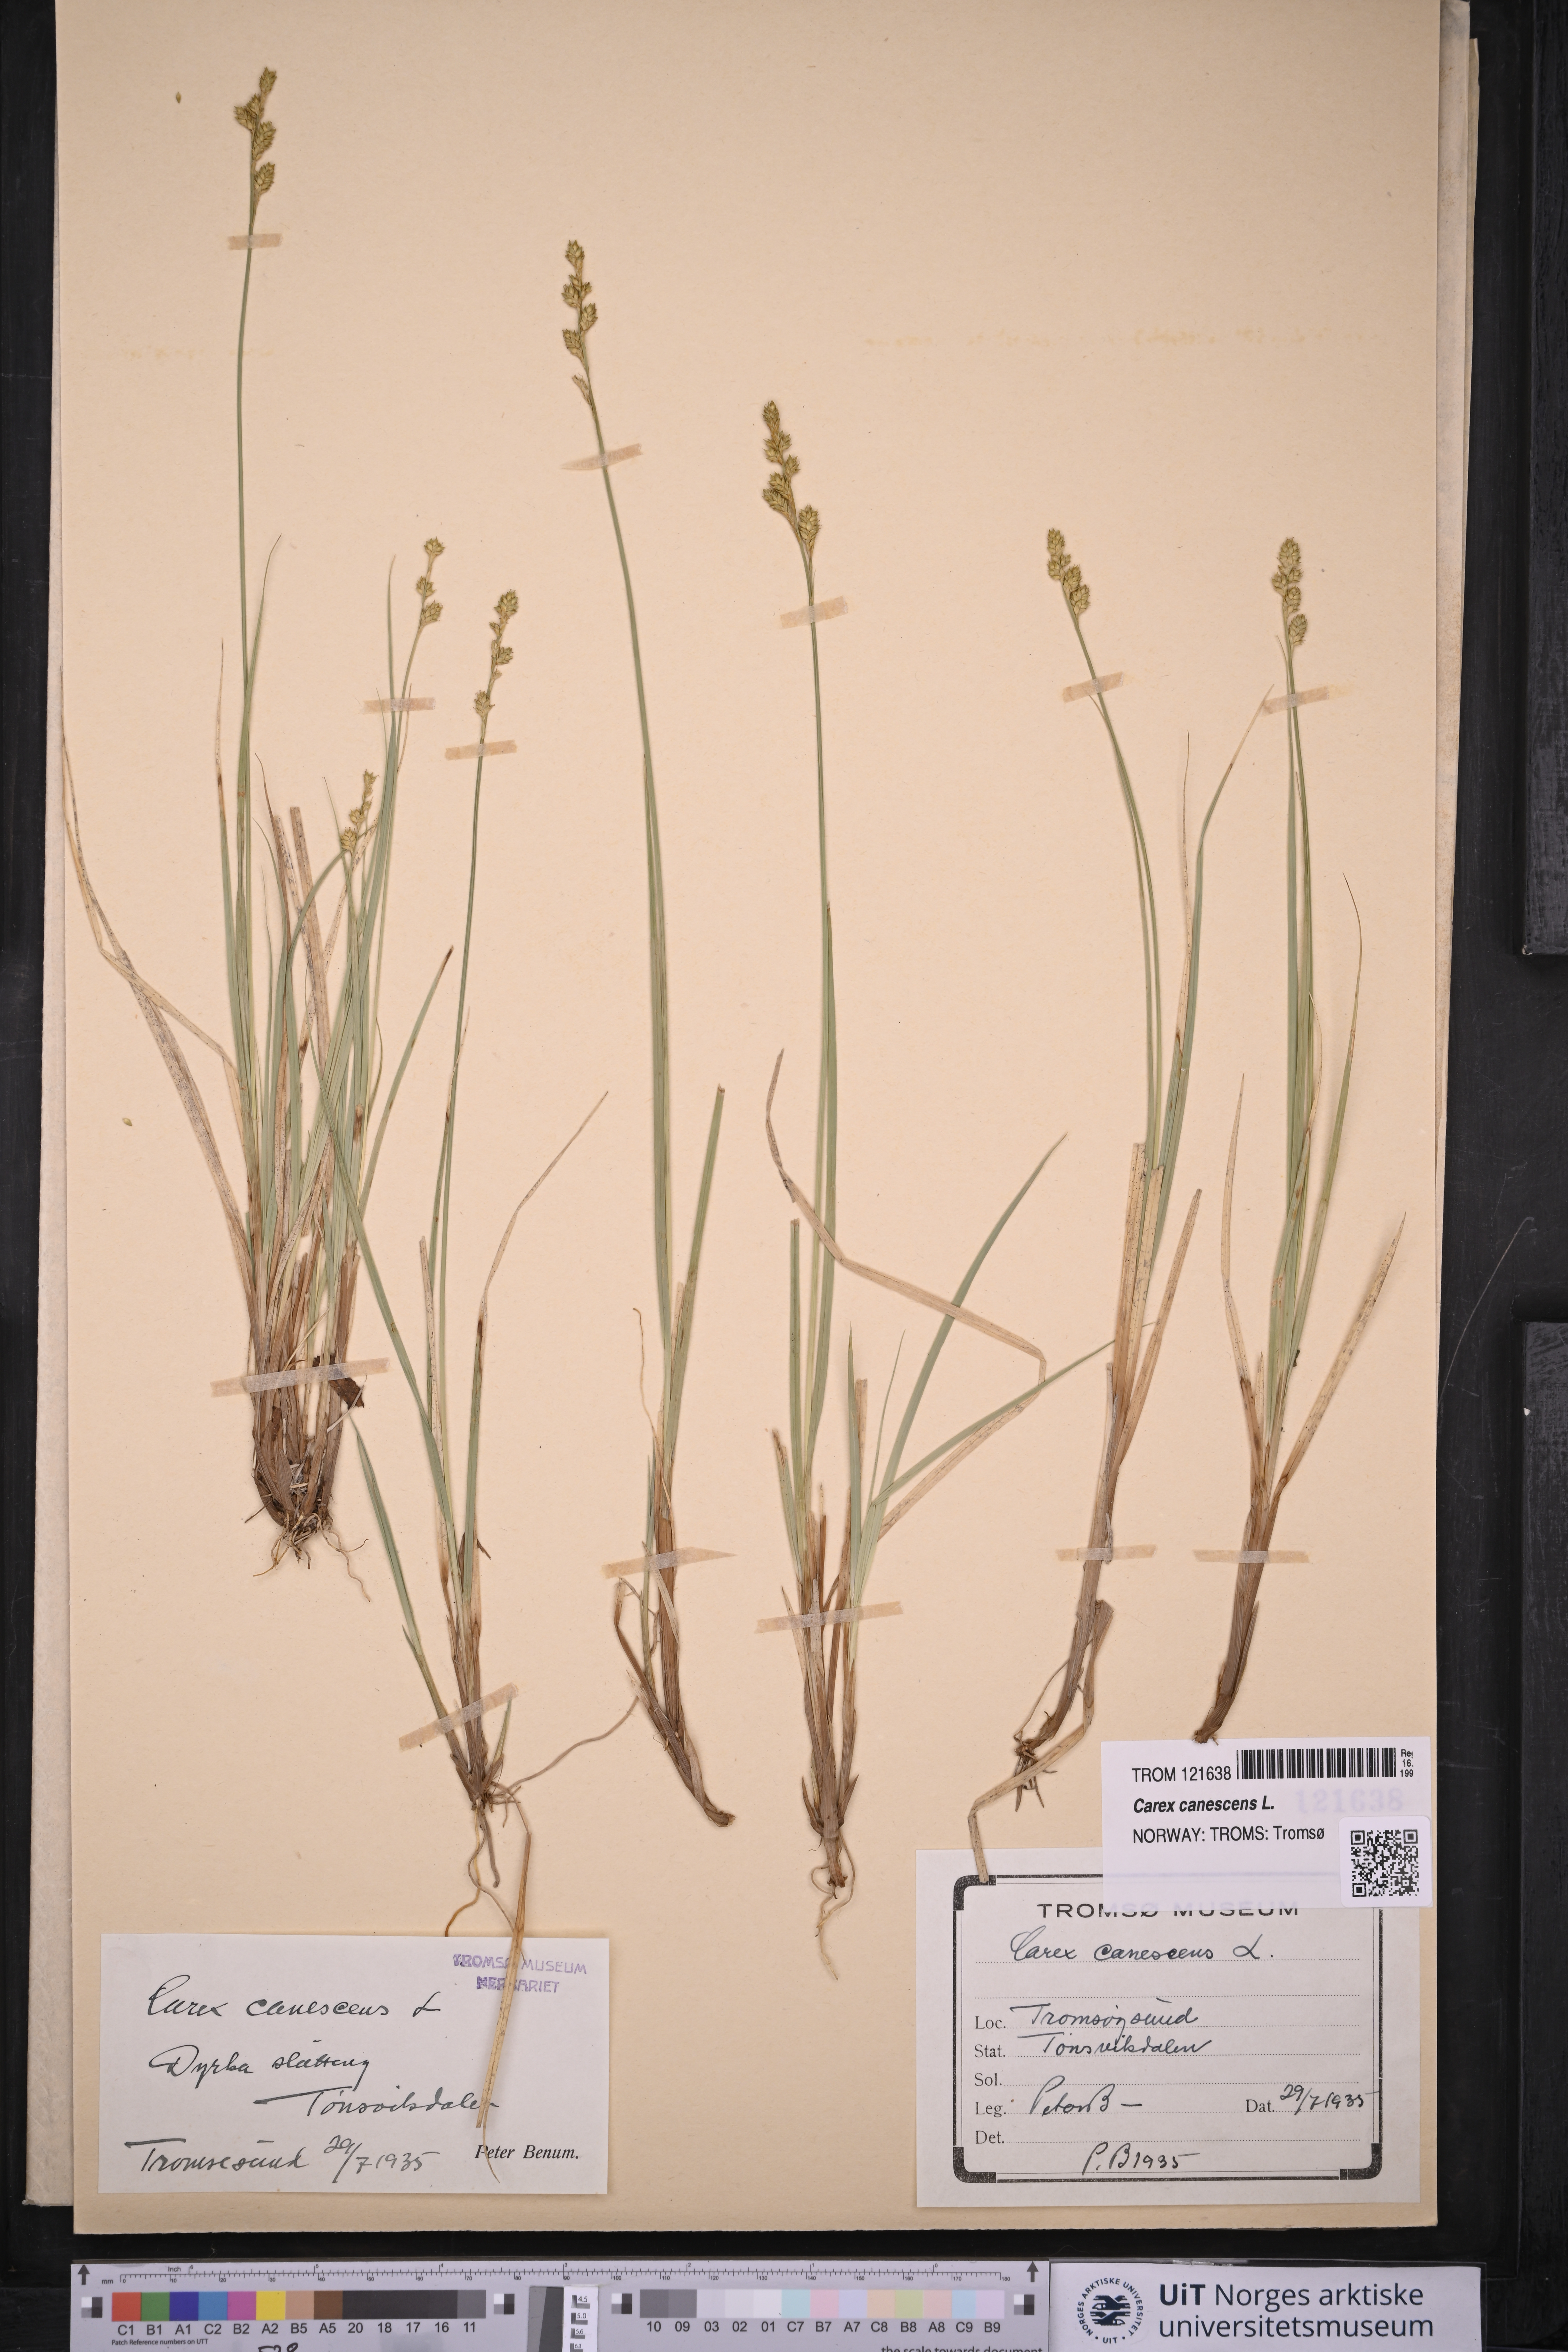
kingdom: Plantae
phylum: Tracheophyta
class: Liliopsida
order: Poales
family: Cyperaceae
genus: Carex
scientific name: Carex canescens
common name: White sedge
